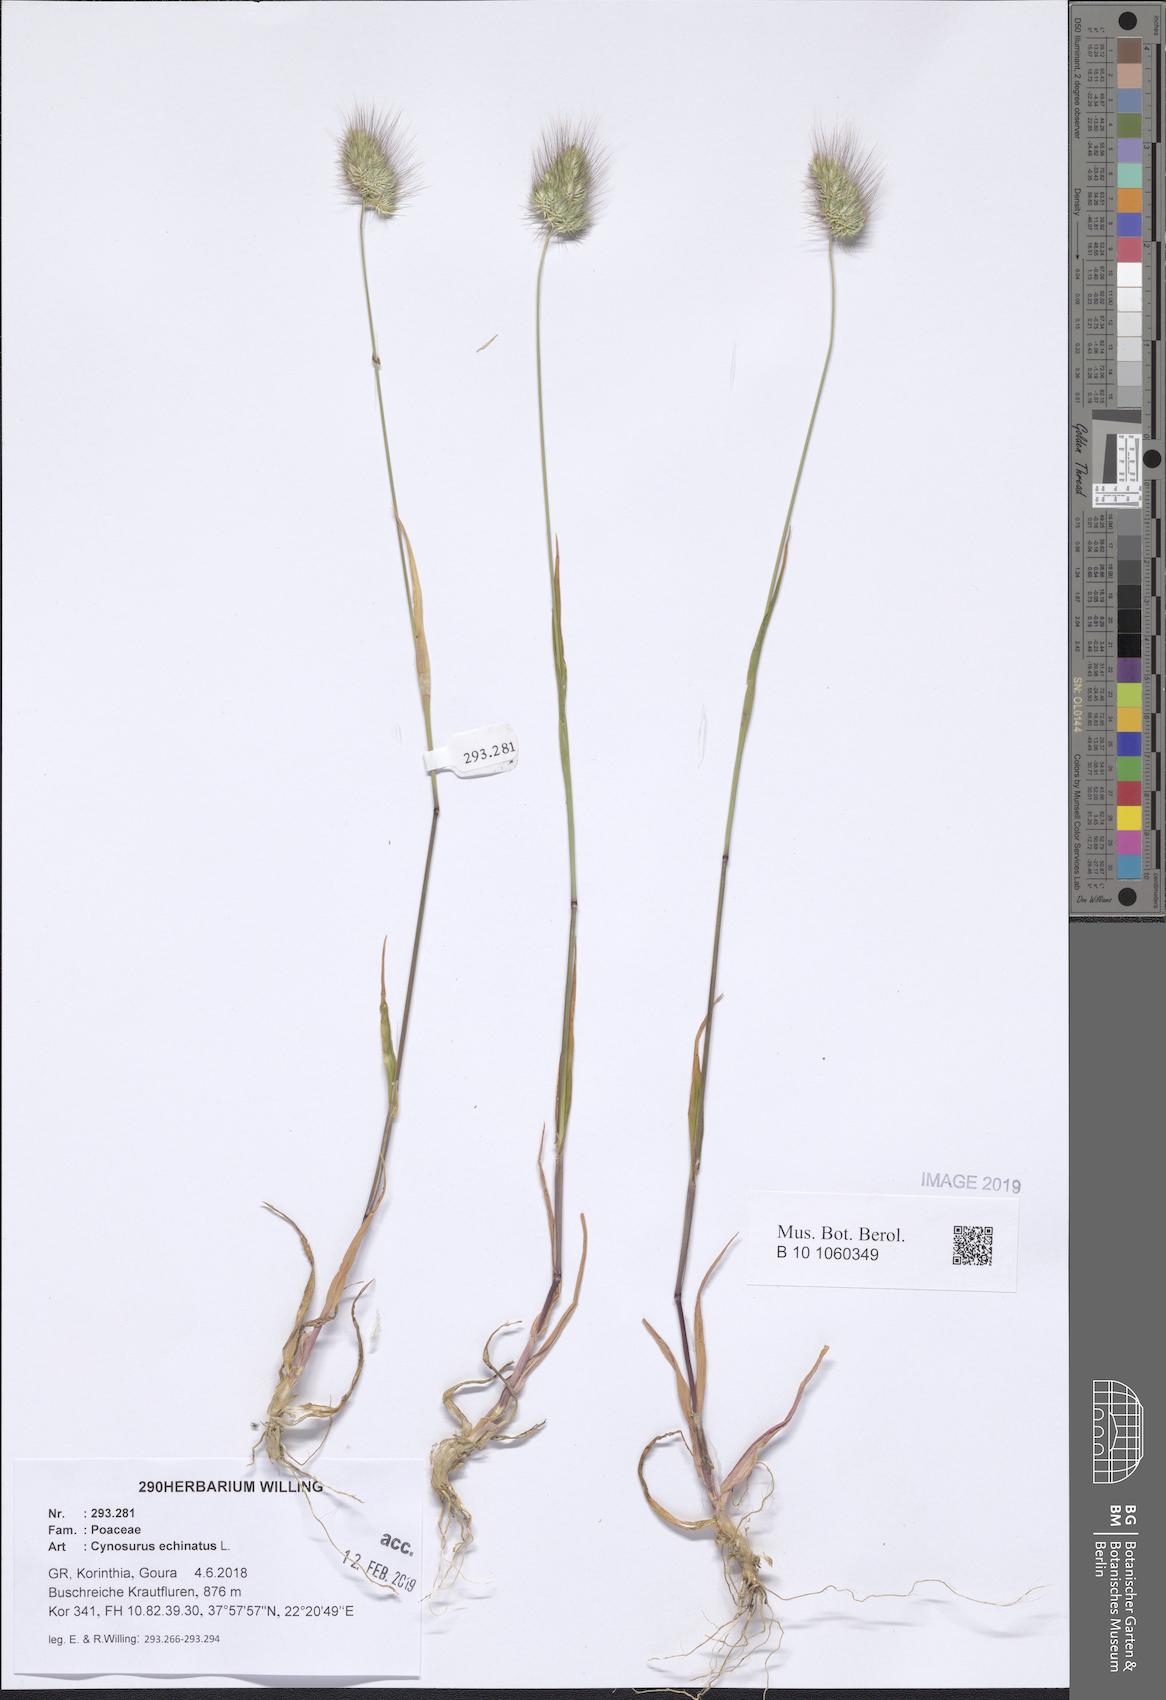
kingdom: Plantae
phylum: Tracheophyta
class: Liliopsida
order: Poales
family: Poaceae
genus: Cynosurus
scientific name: Cynosurus echinatus
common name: Rough dog's-tail
